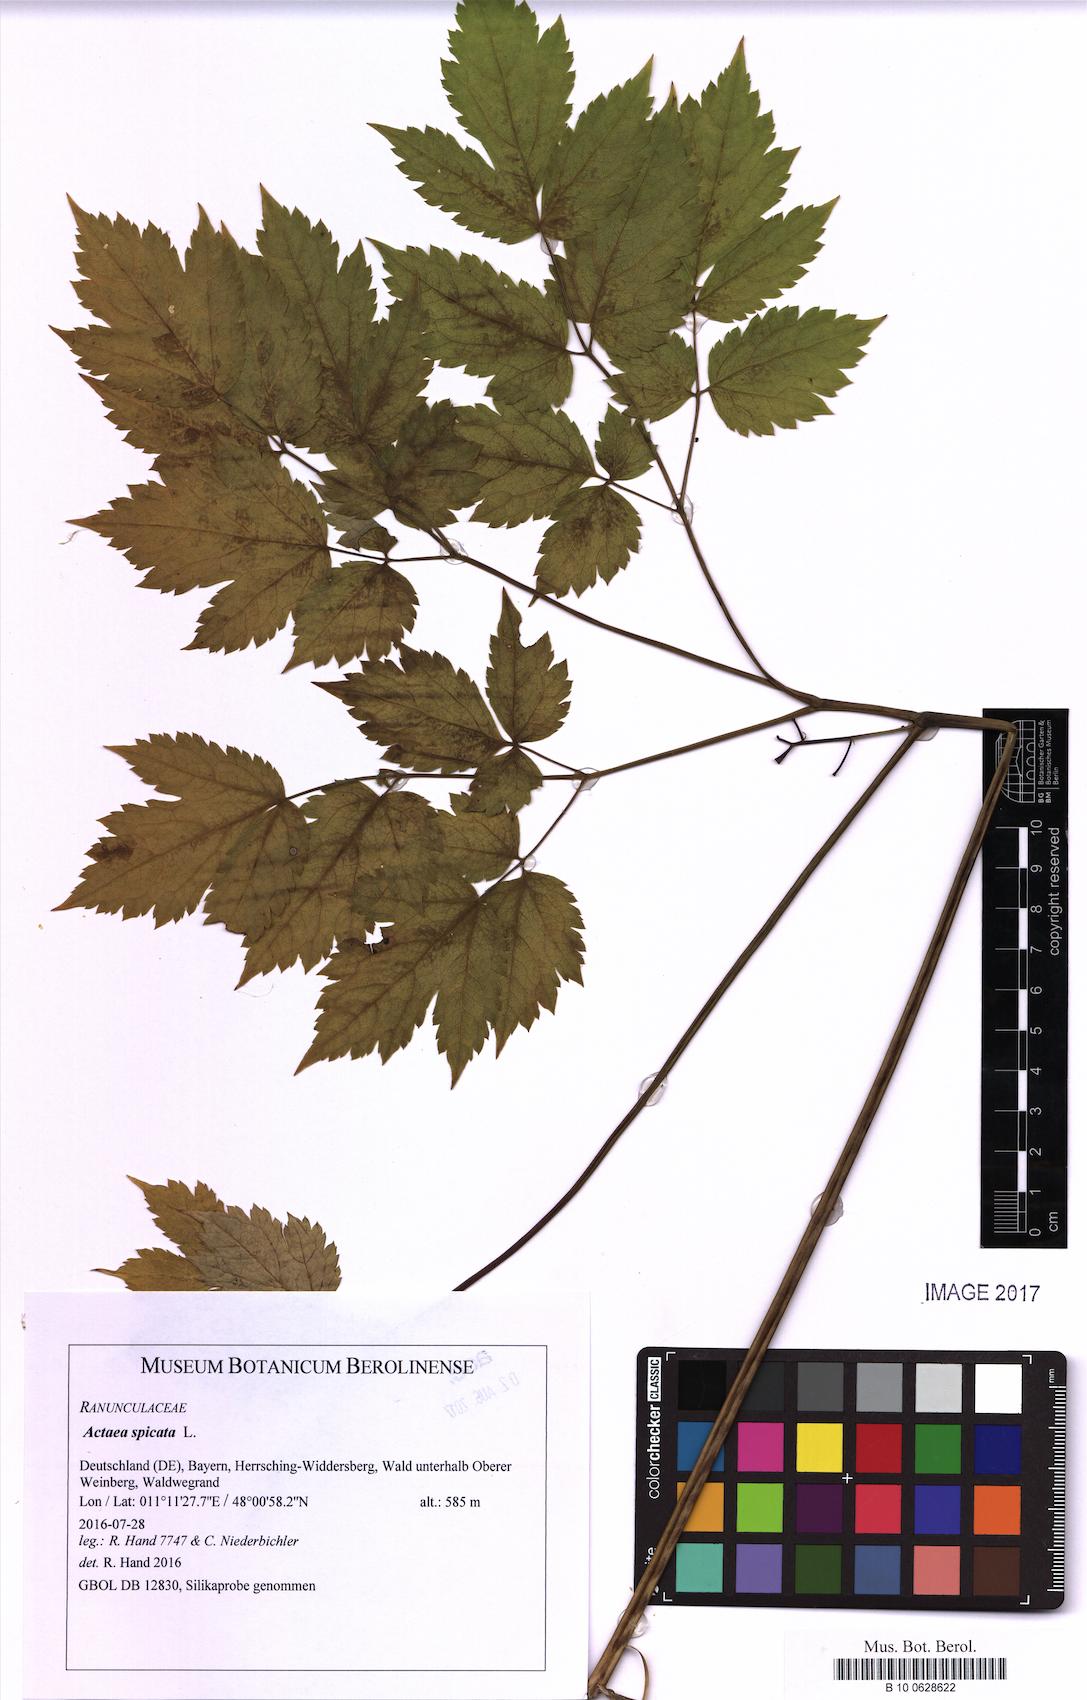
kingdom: Plantae
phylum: Tracheophyta
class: Magnoliopsida
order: Ranunculales
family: Ranunculaceae
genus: Actaea
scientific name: Actaea spicata
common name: Baneberry
